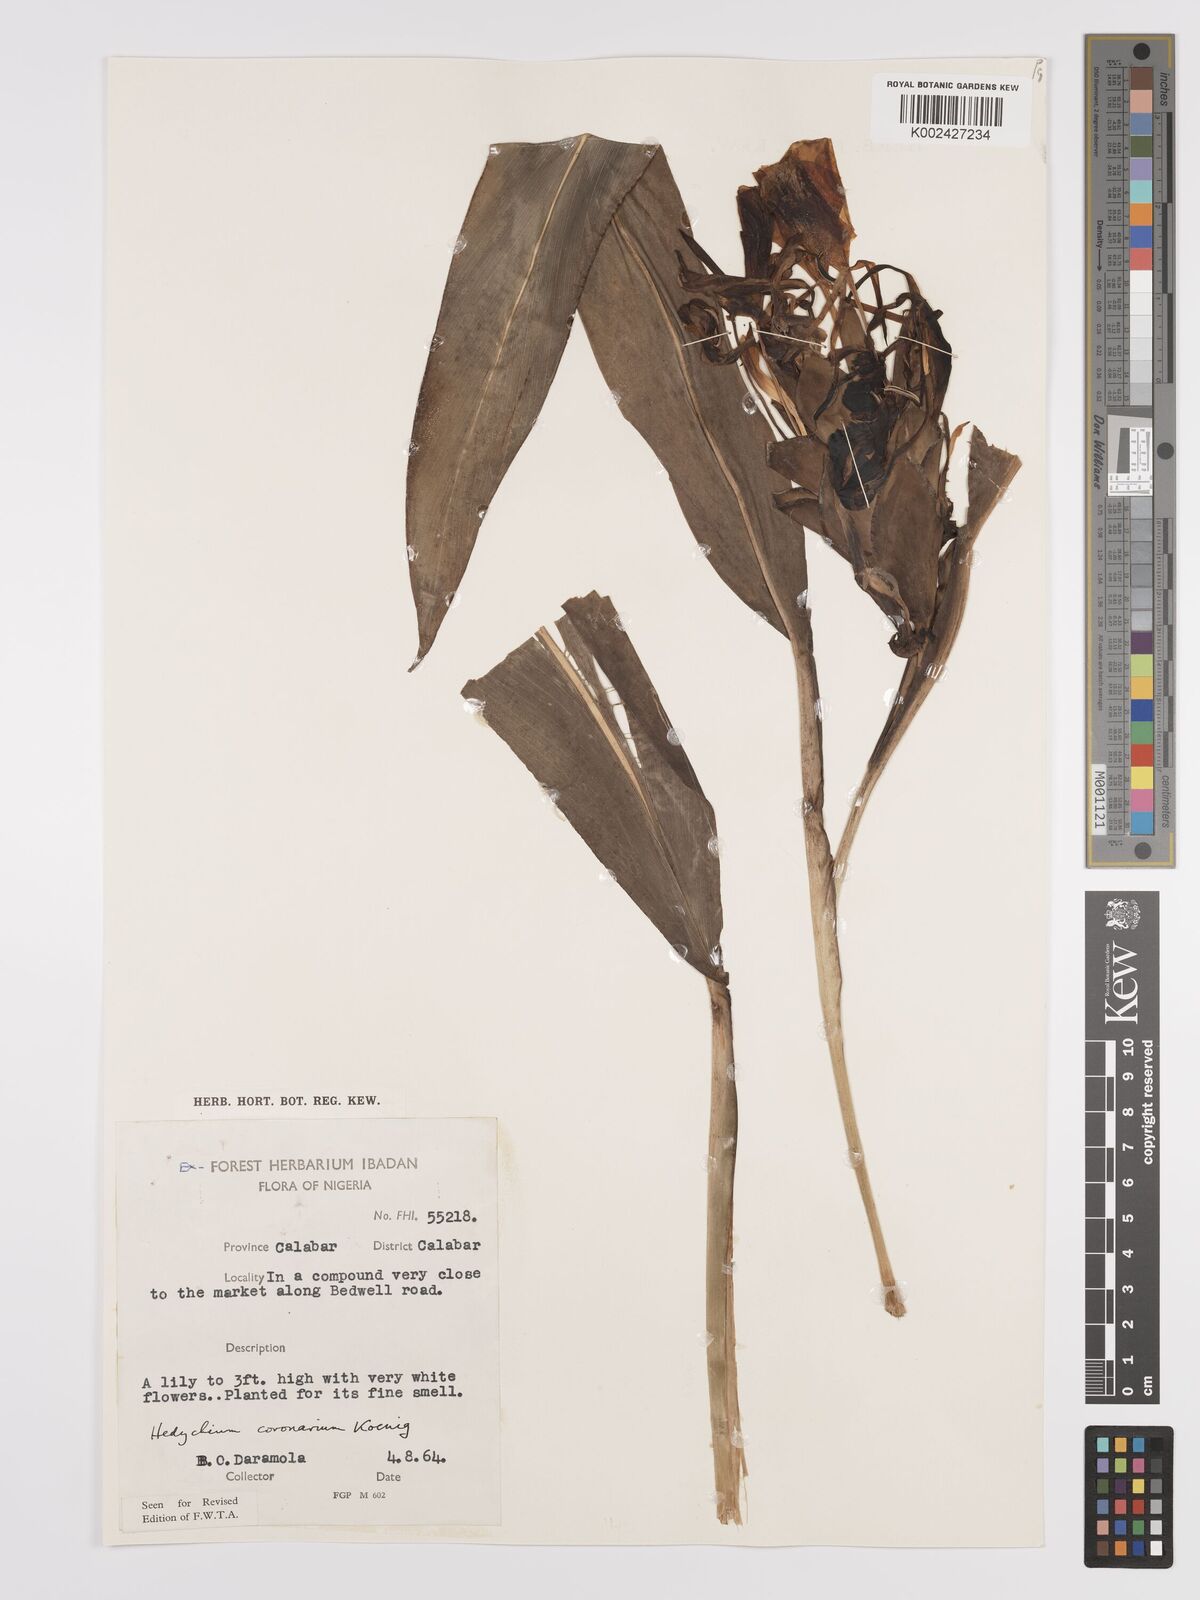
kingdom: Plantae
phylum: Tracheophyta
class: Liliopsida
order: Zingiberales
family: Zingiberaceae
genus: Hedychium
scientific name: Hedychium coronarium
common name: White garland-lily
